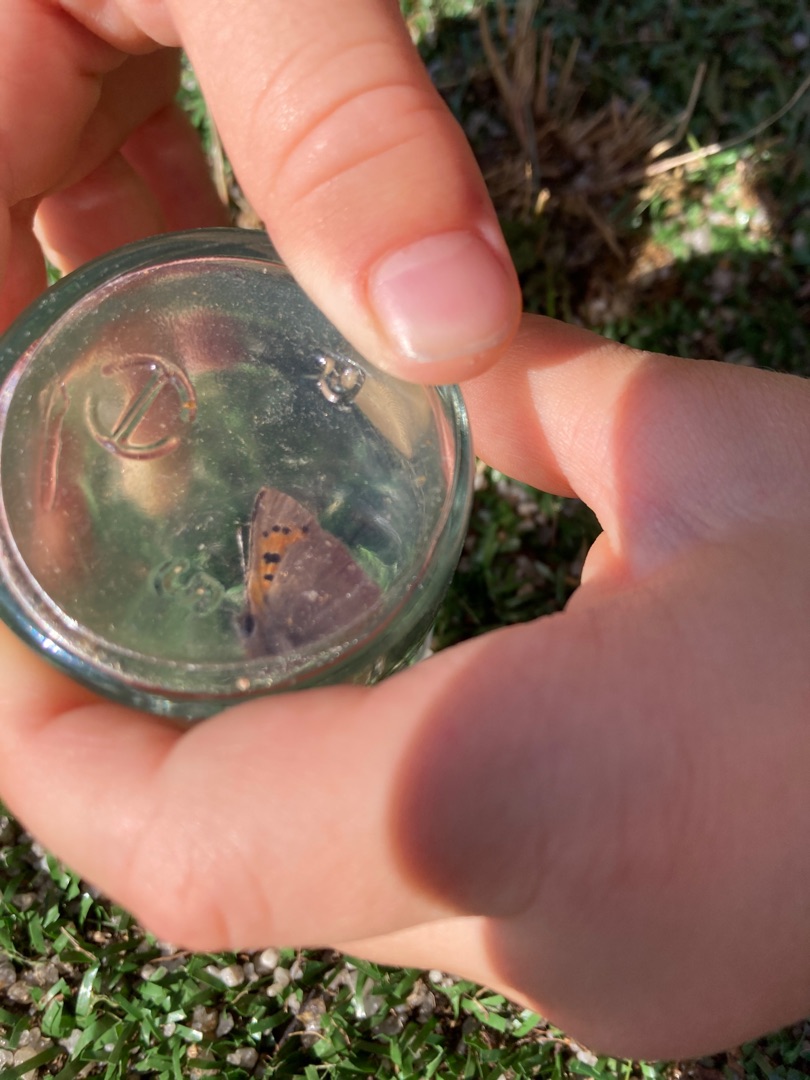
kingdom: Animalia
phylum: Arthropoda
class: Insecta
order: Lepidoptera
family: Lycaenidae
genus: Lycaena
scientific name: Lycaena phlaeas
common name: Lille ildfugl
